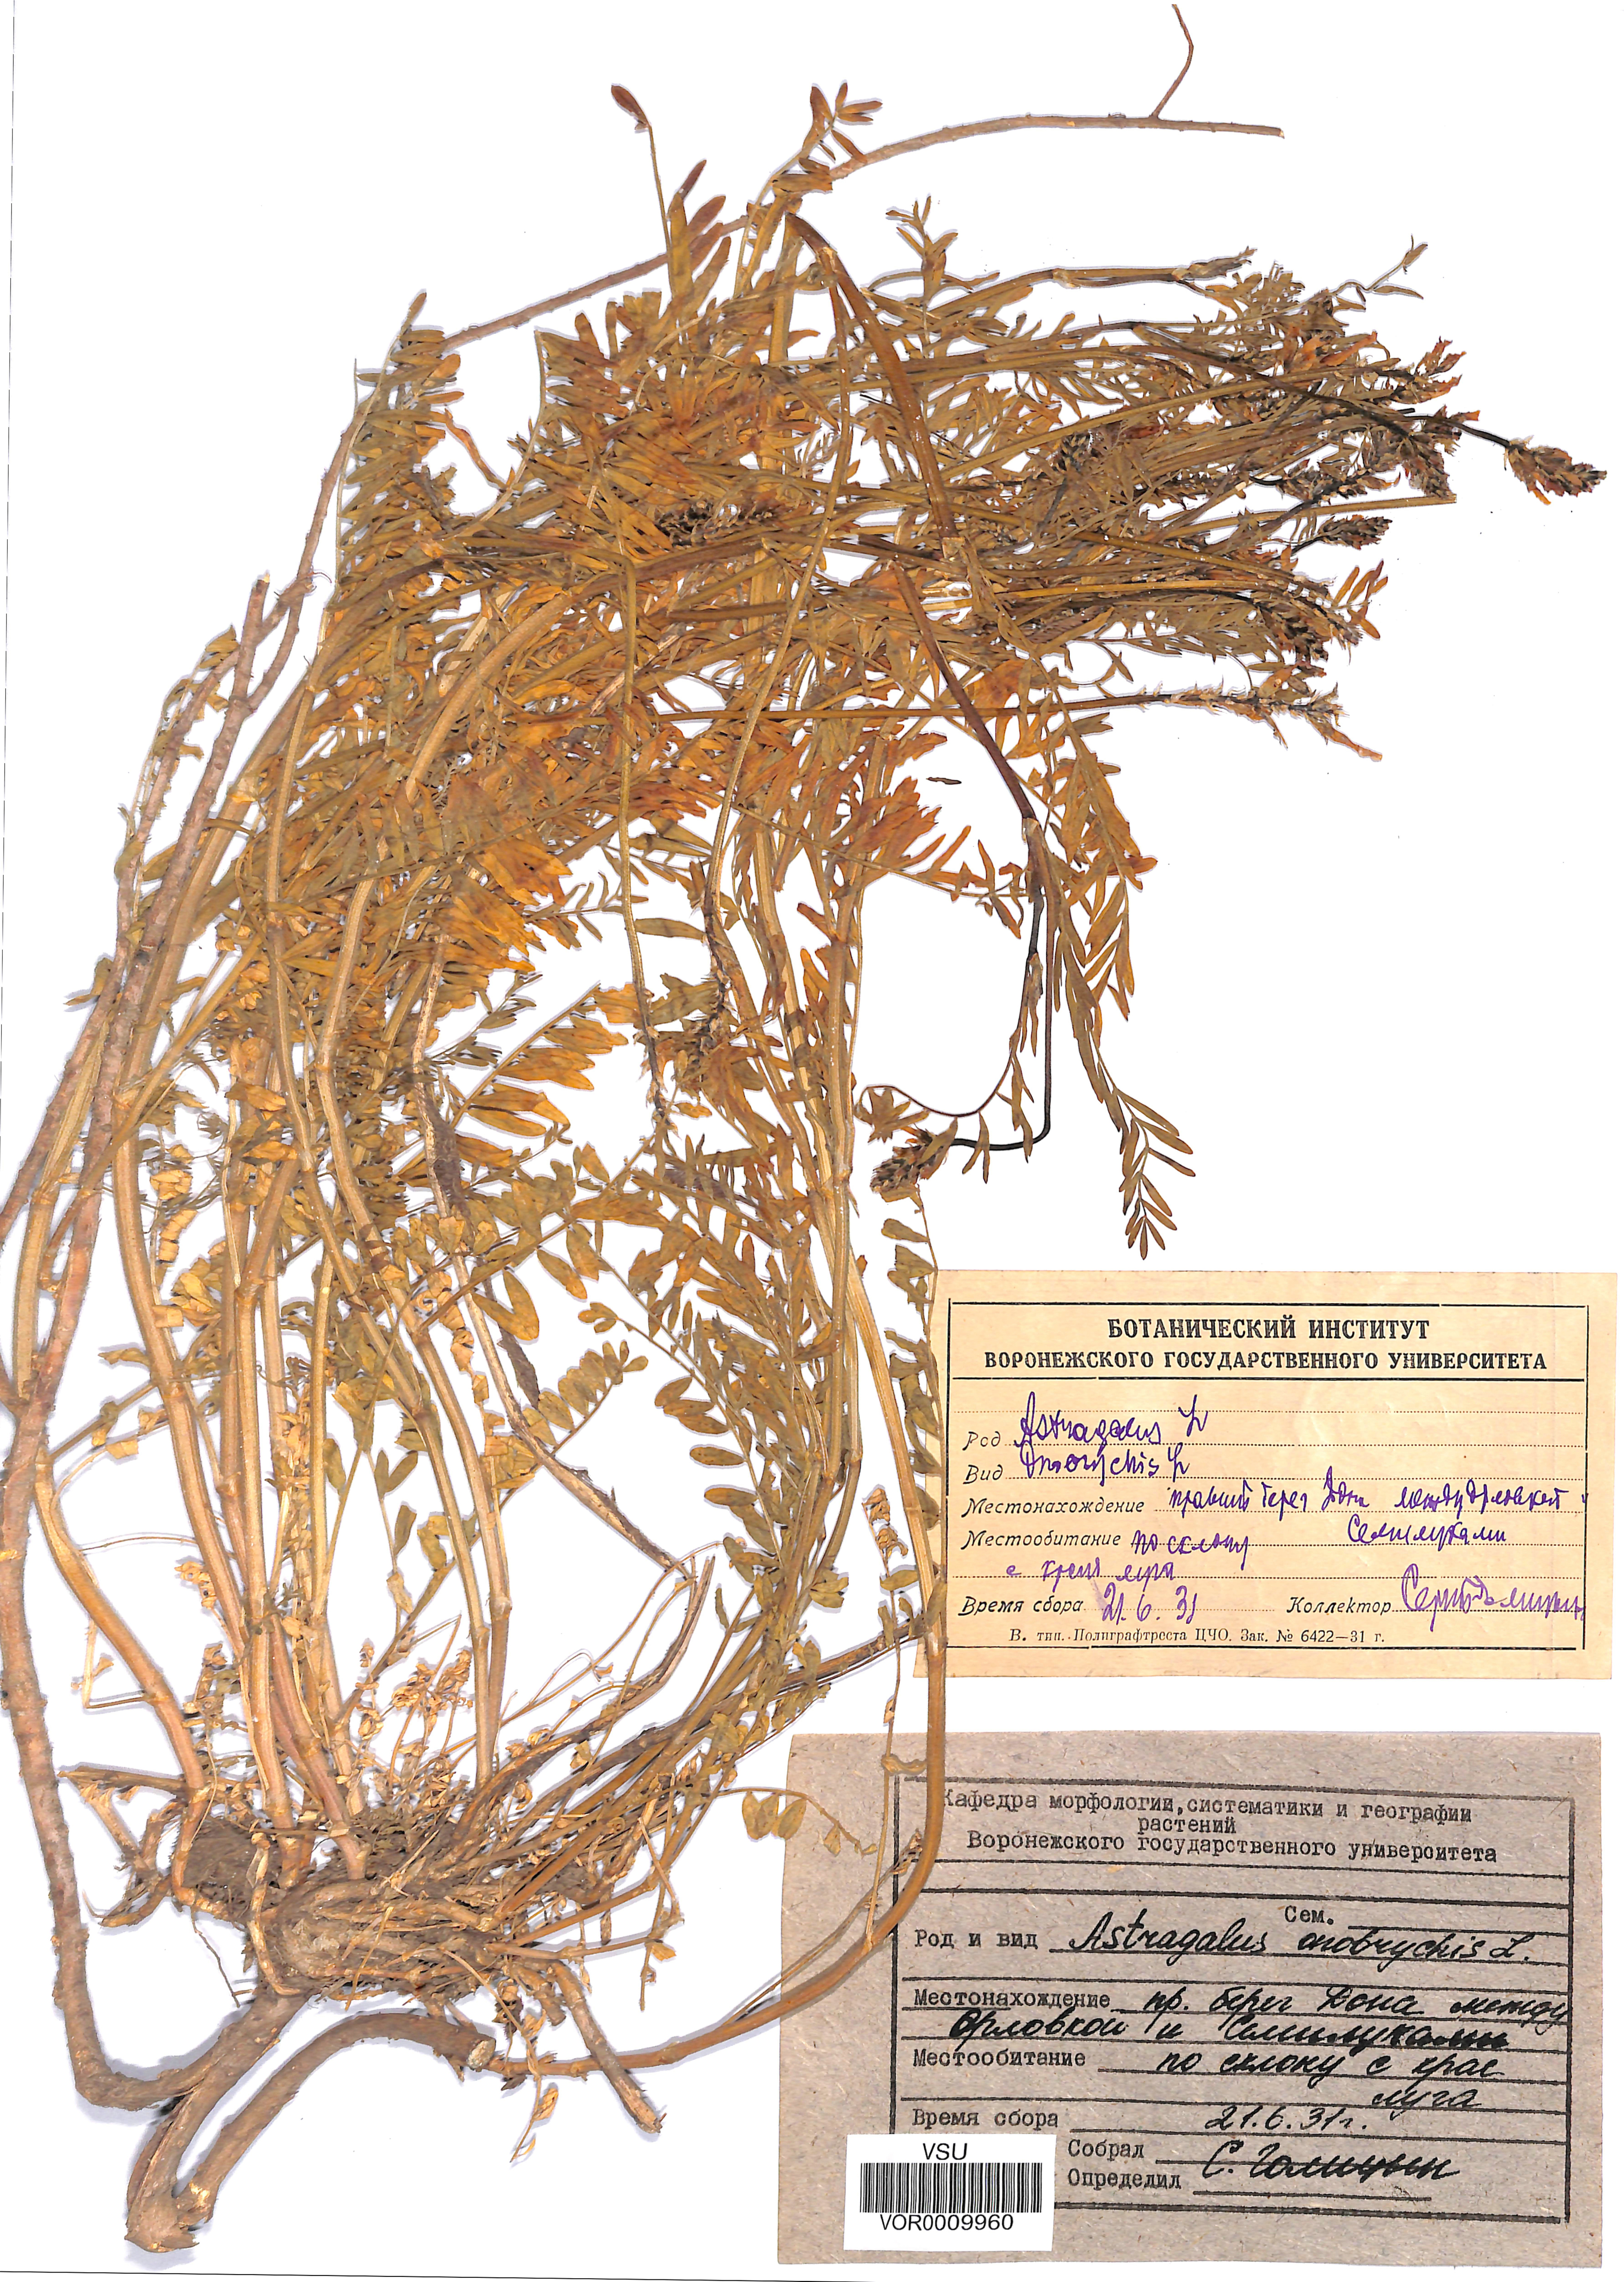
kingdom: Plantae
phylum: Tracheophyta
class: Magnoliopsida
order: Fabales
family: Fabaceae
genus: Astragalus
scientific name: Astragalus onobrychis
